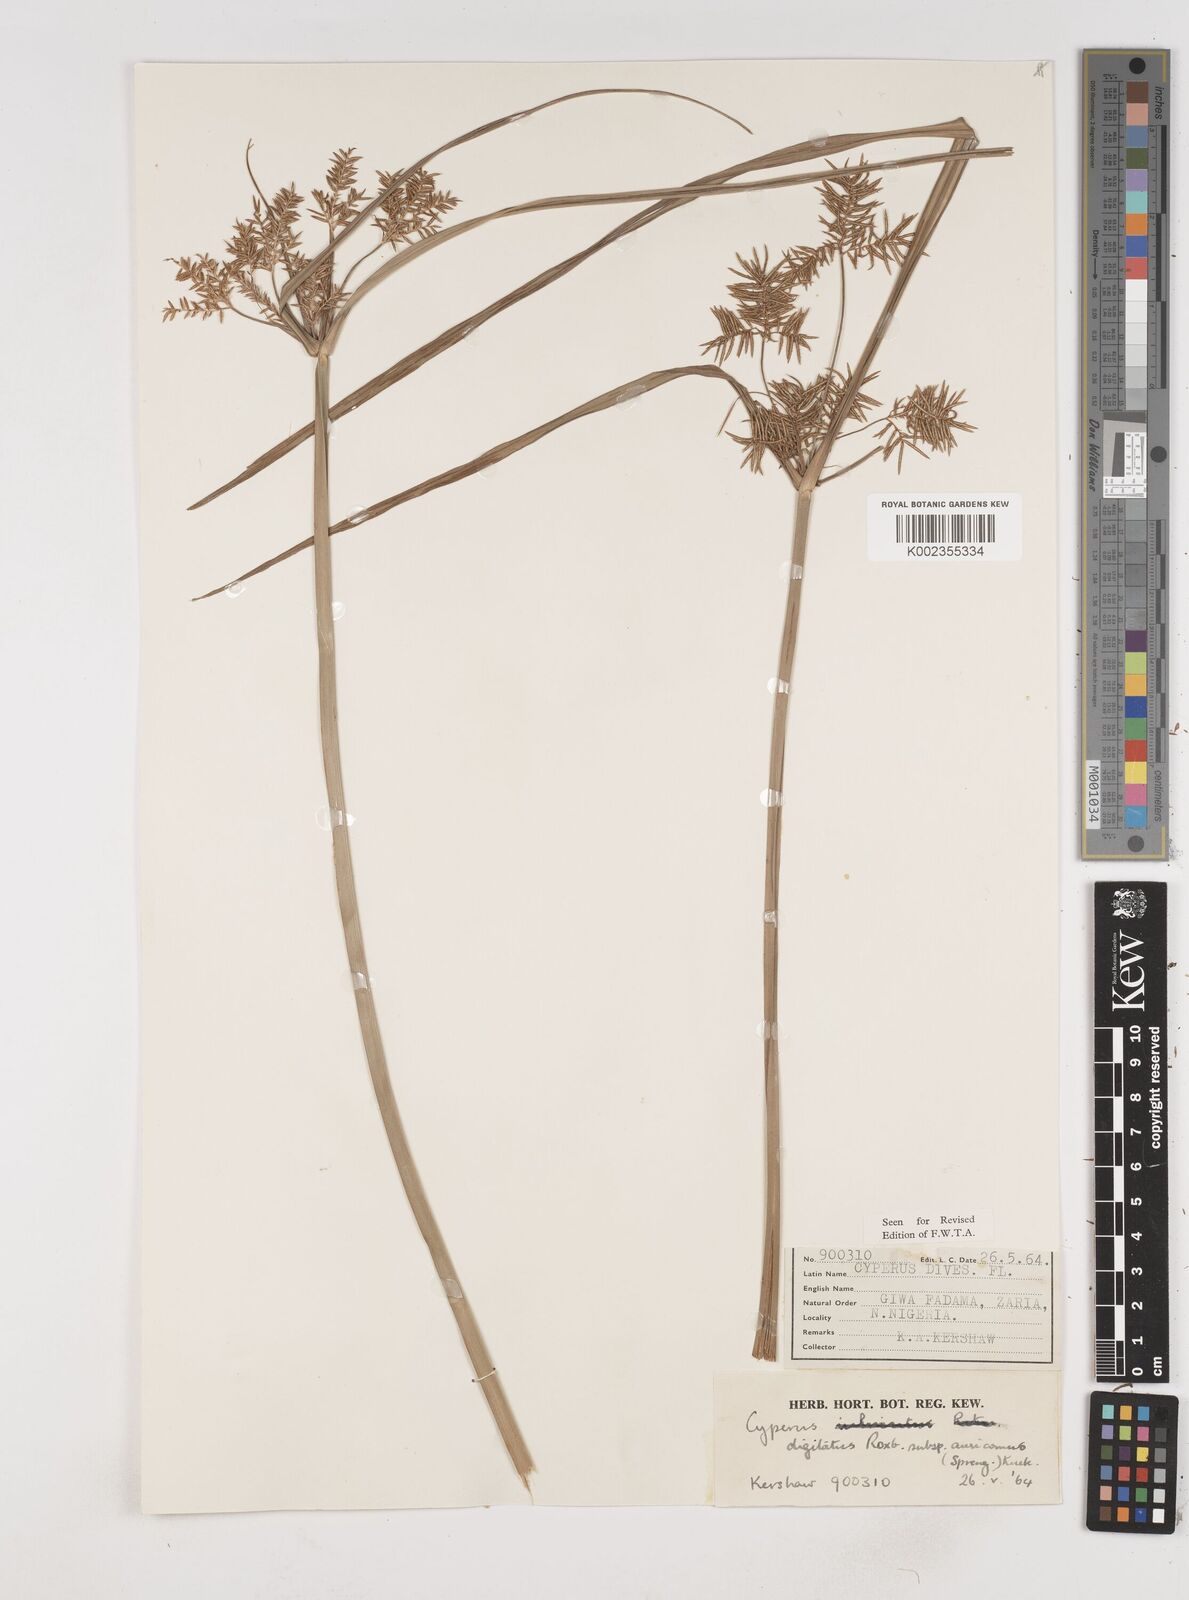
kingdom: Plantae
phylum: Tracheophyta
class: Liliopsida
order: Poales
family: Cyperaceae
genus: Cyperus
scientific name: Cyperus digitatus
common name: Finger flatsedge
